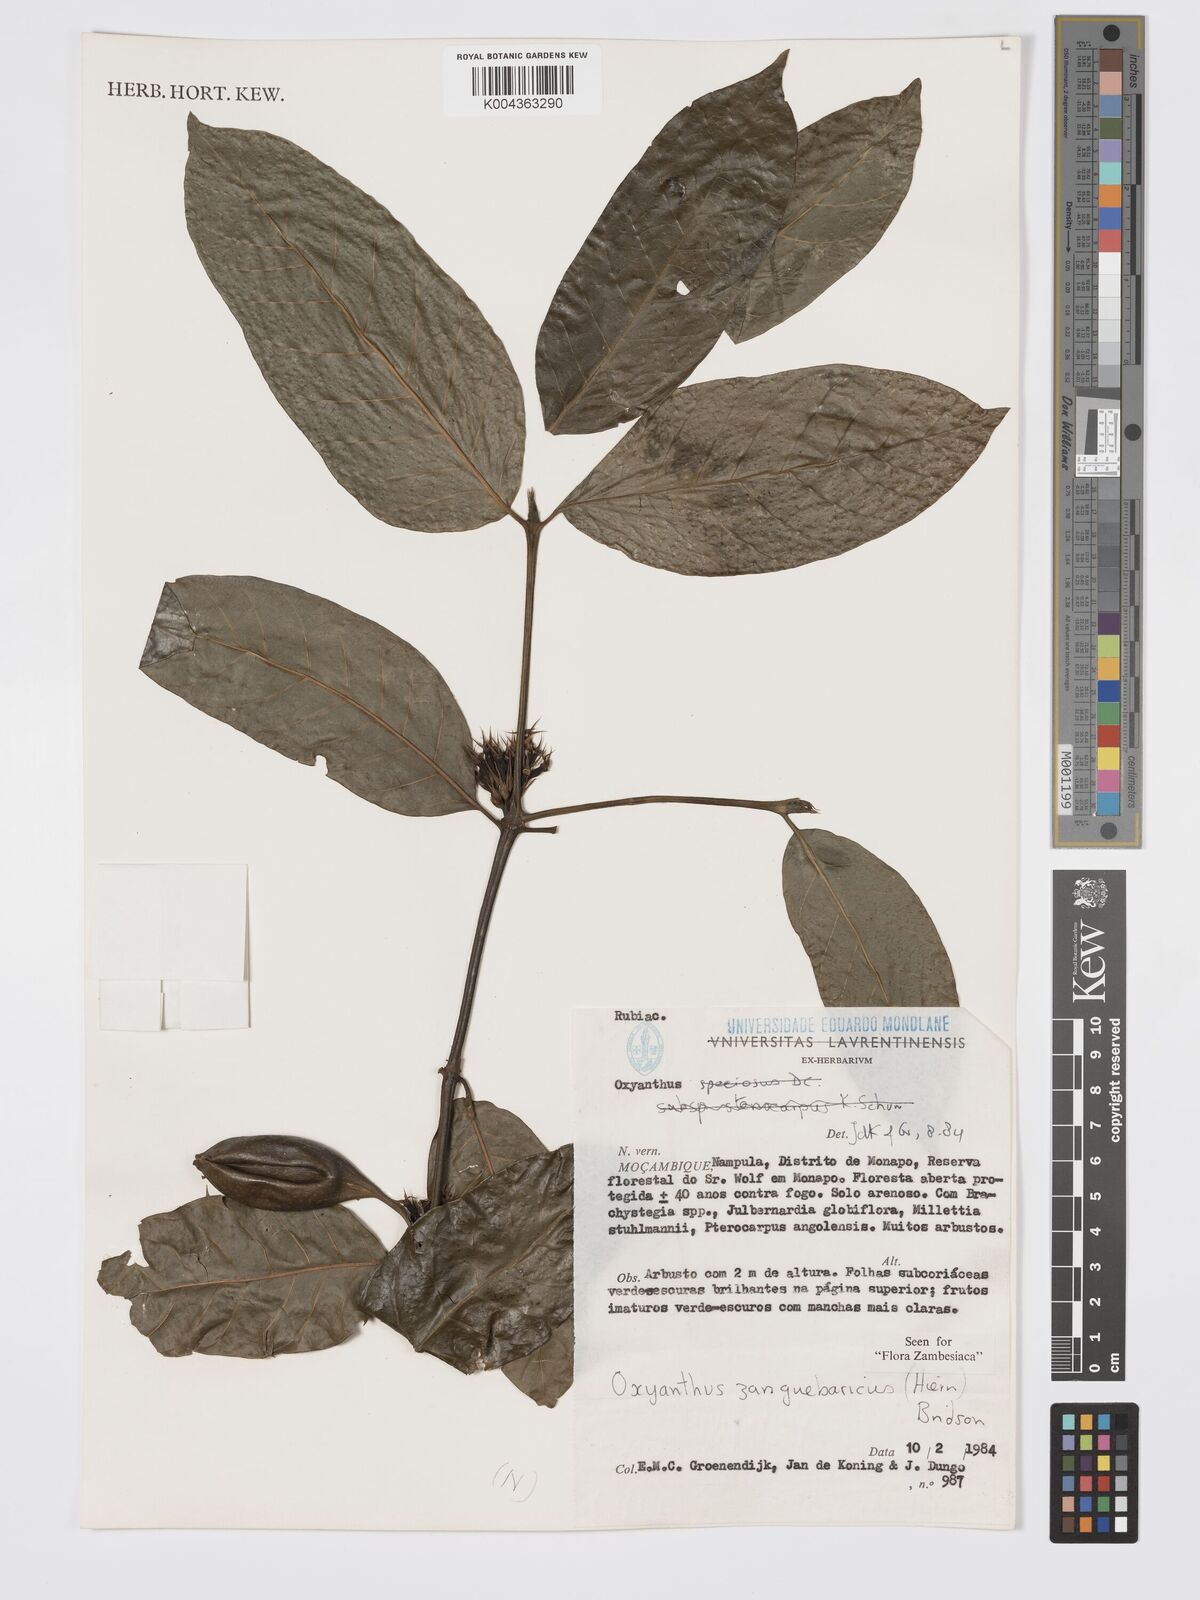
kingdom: Plantae
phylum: Tracheophyta
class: Magnoliopsida
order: Gentianales
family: Rubiaceae
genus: Oxyanthus
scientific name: Oxyanthus zanguebaricus
